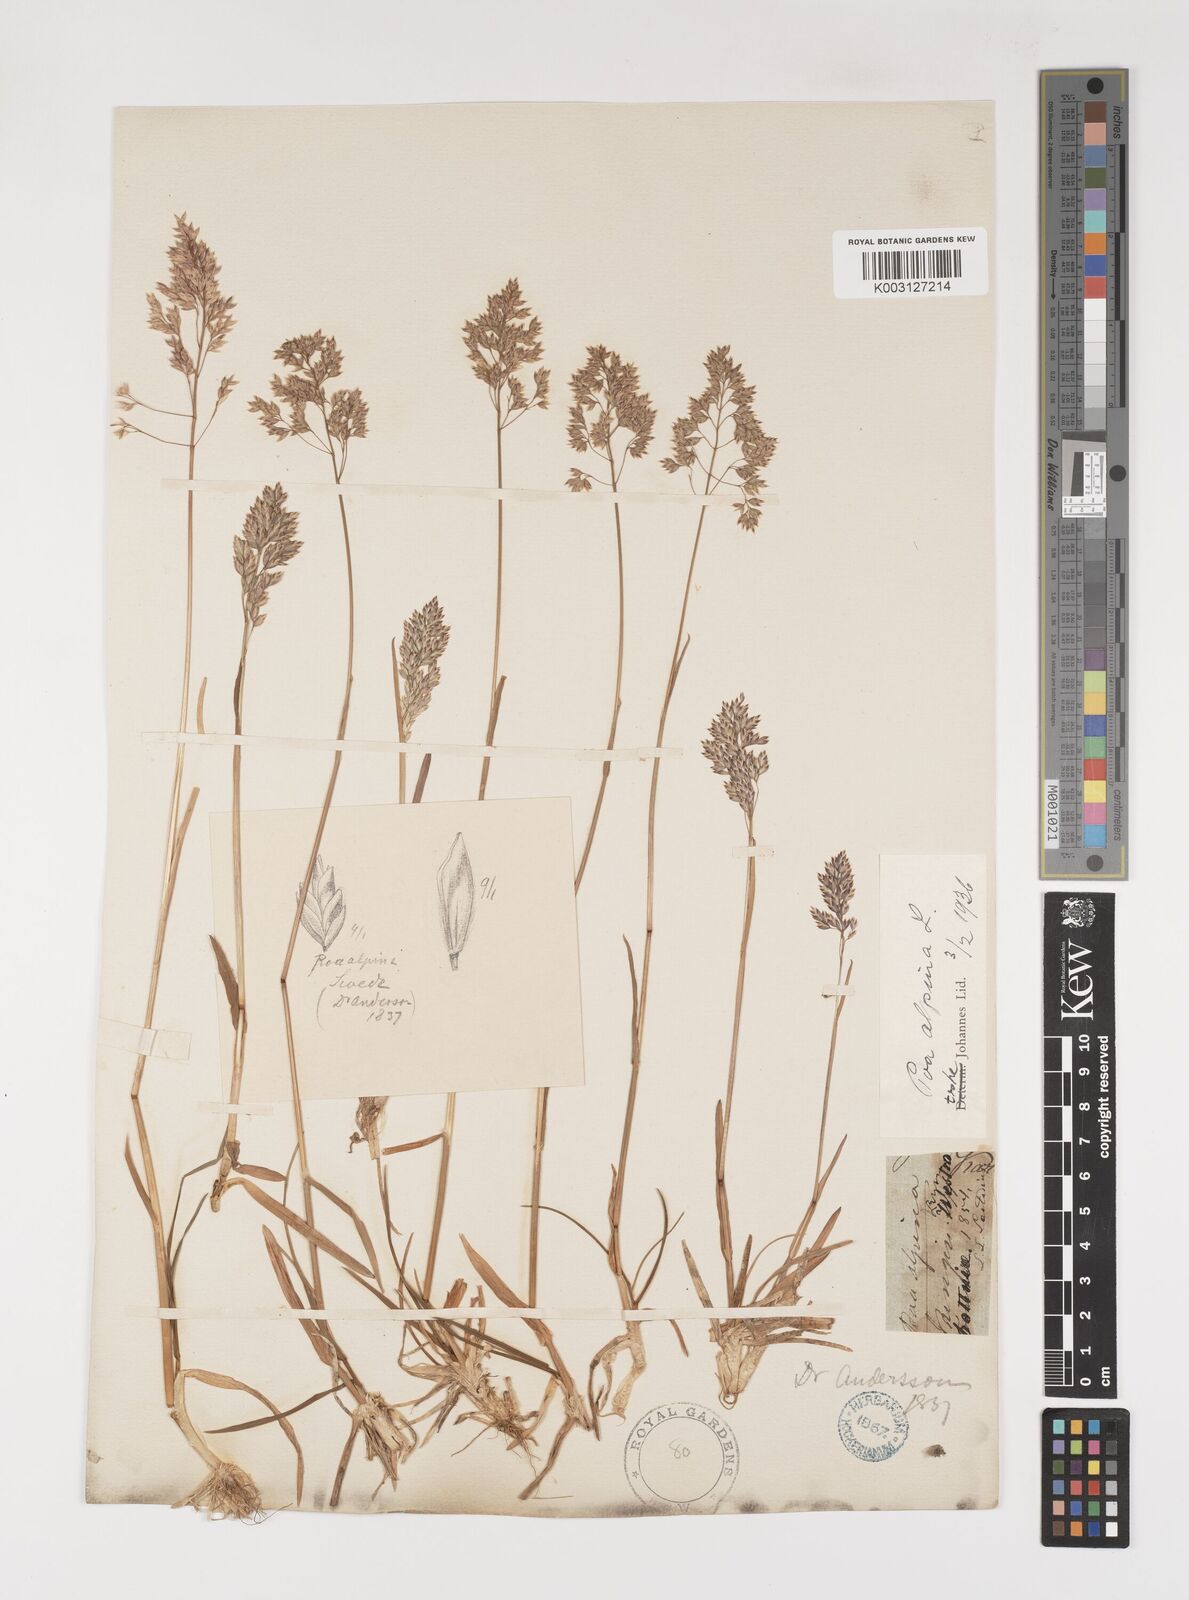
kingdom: Plantae
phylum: Tracheophyta
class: Liliopsida
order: Poales
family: Poaceae
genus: Poa
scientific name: Poa alpina
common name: Alpine bluegrass
